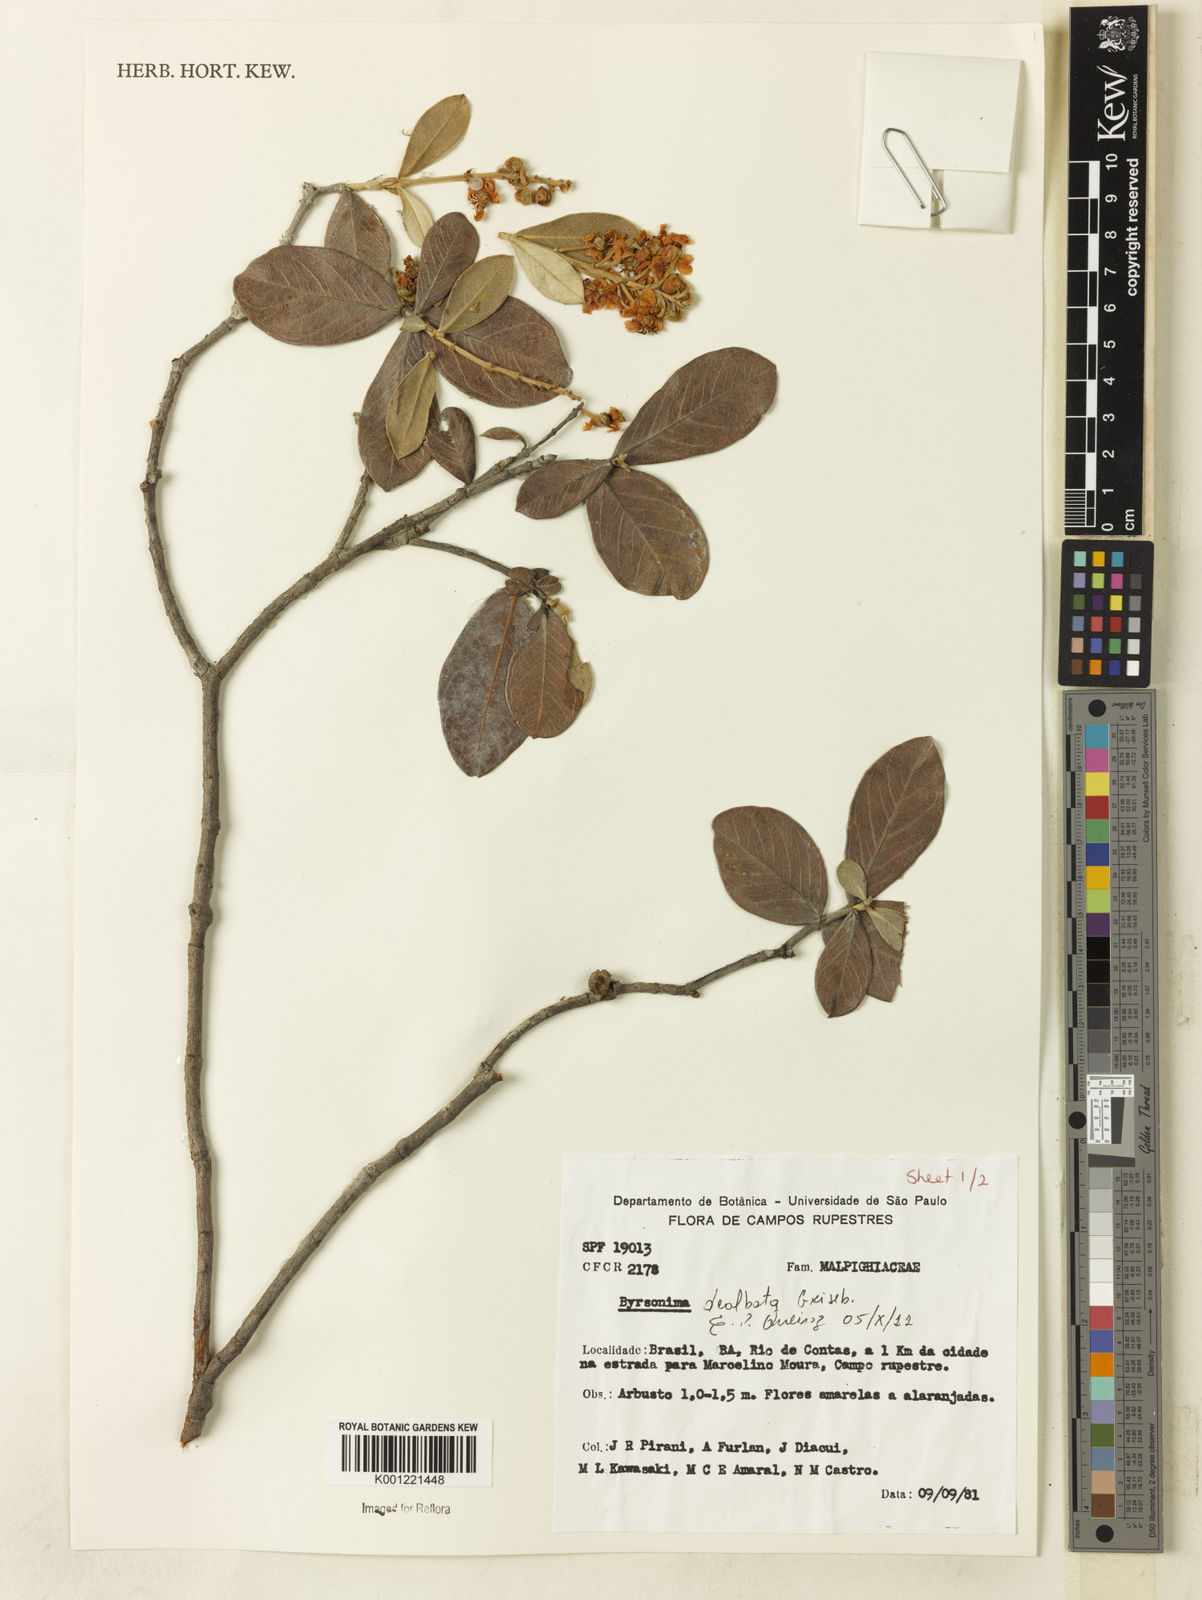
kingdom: Plantae
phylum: Tracheophyta
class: Magnoliopsida
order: Malpighiales
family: Malpighiaceae
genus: Byrsonima
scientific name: Byrsonima dealbata
